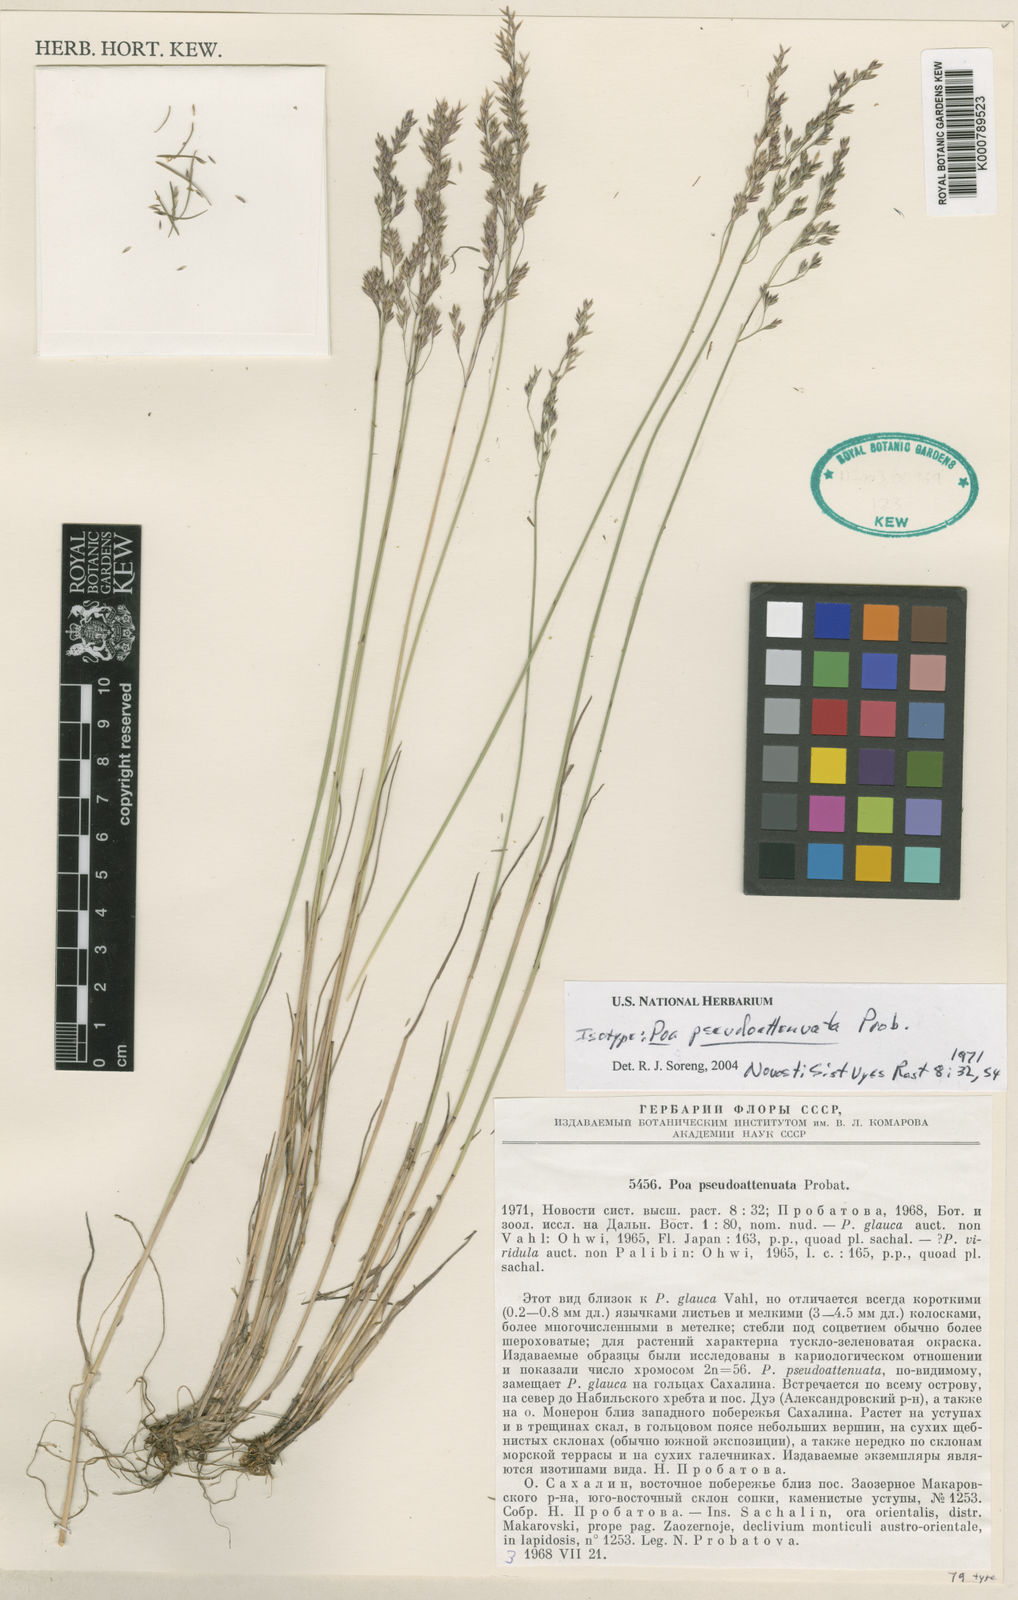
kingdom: Plantae
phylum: Tracheophyta
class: Liliopsida
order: Poales
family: Poaceae
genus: Poa
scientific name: Poa pseudoattenuata
